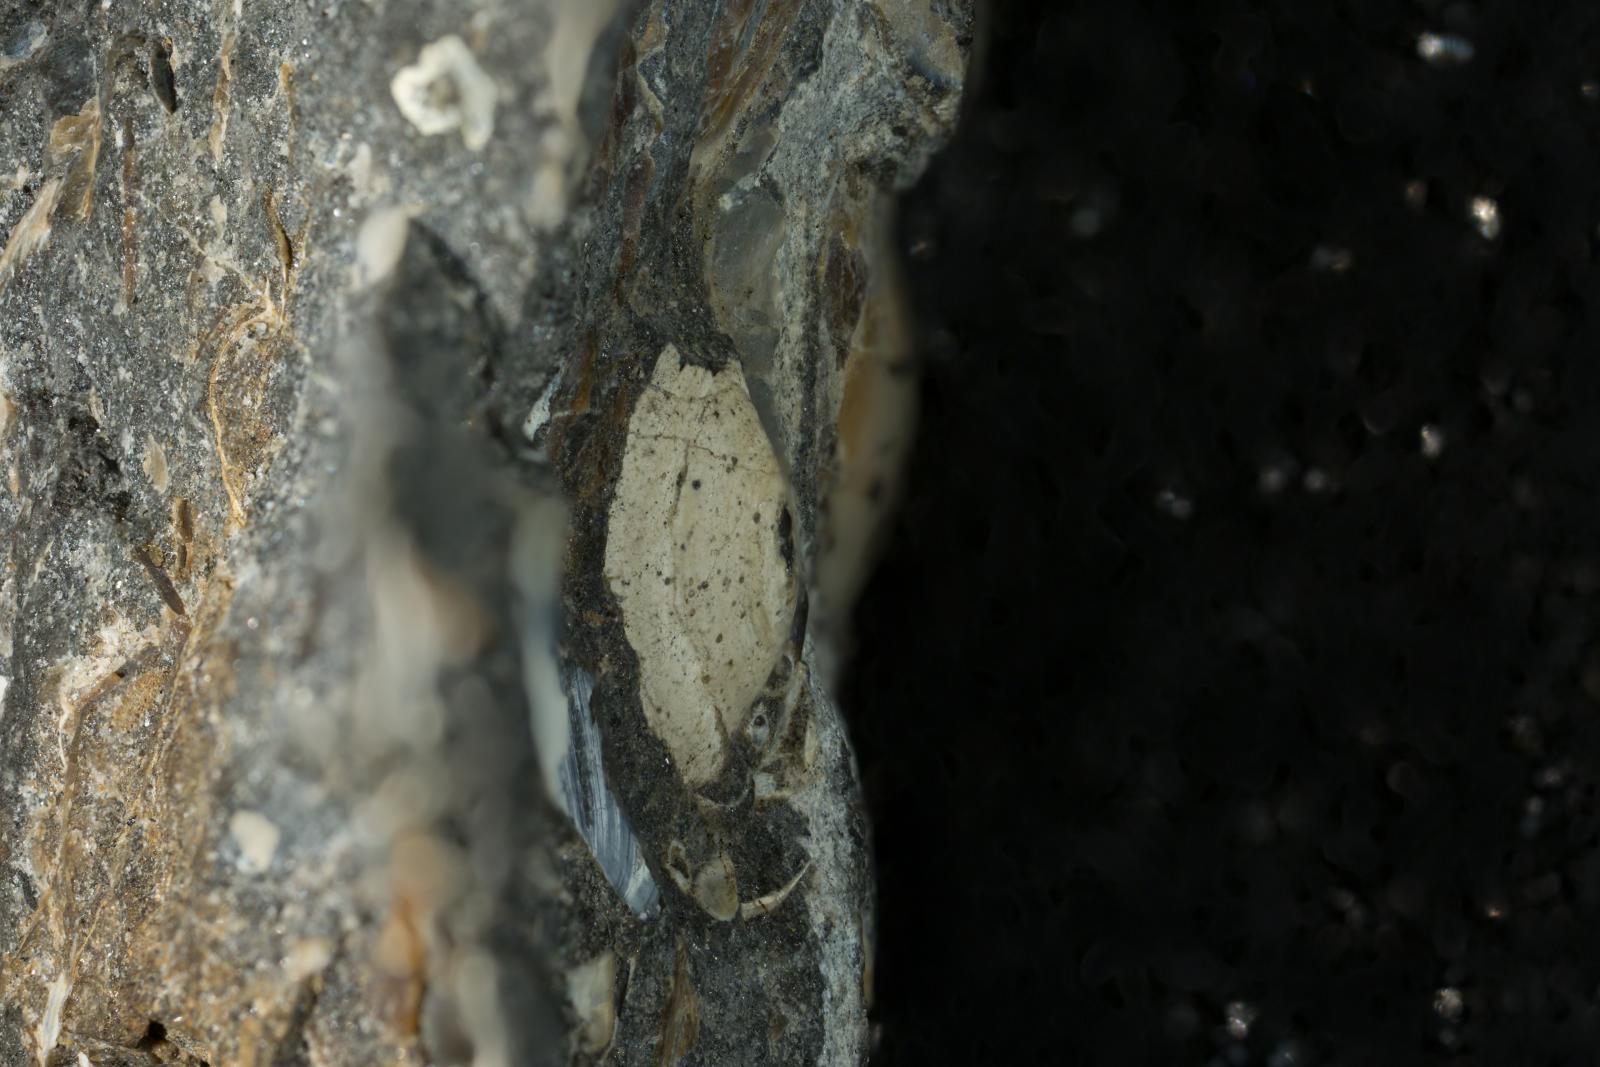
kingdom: Animalia
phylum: Mollusca
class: Gastropoda
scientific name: Gastropoda
